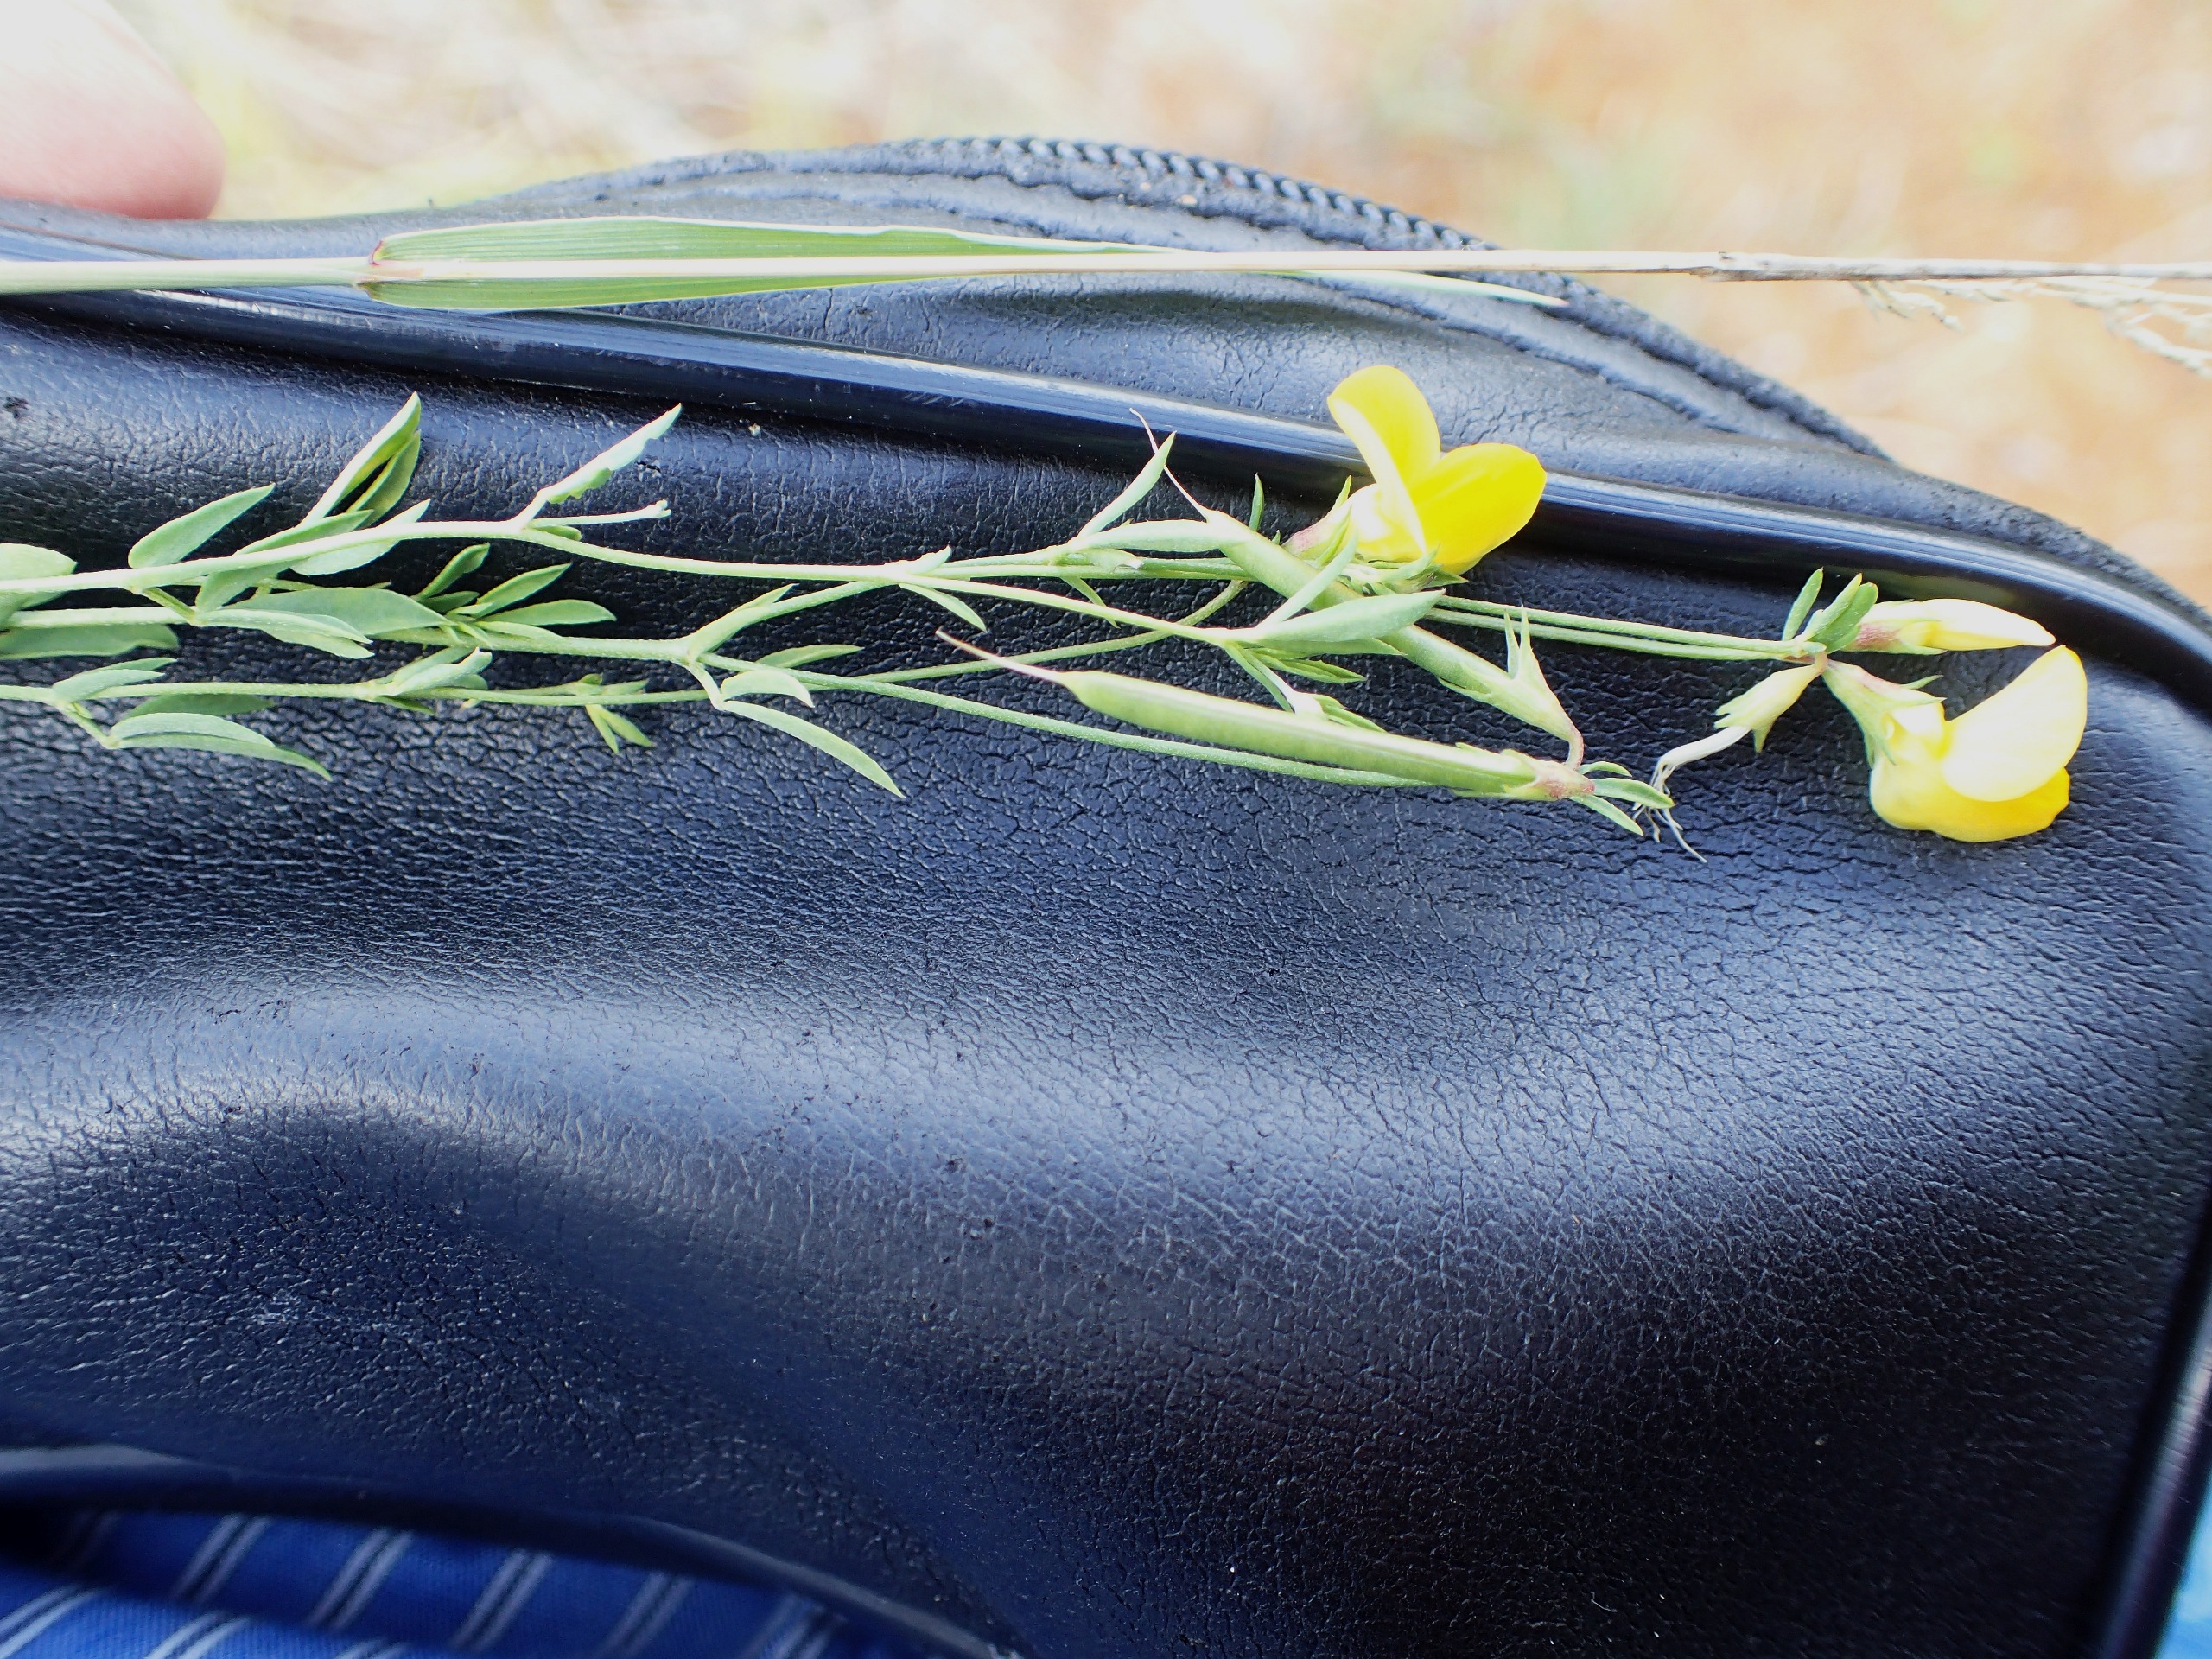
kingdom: Plantae
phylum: Tracheophyta
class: Magnoliopsida
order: Fabales
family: Fabaceae
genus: Lotus
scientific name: Lotus tenuis
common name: Smalbladet kællingetand
